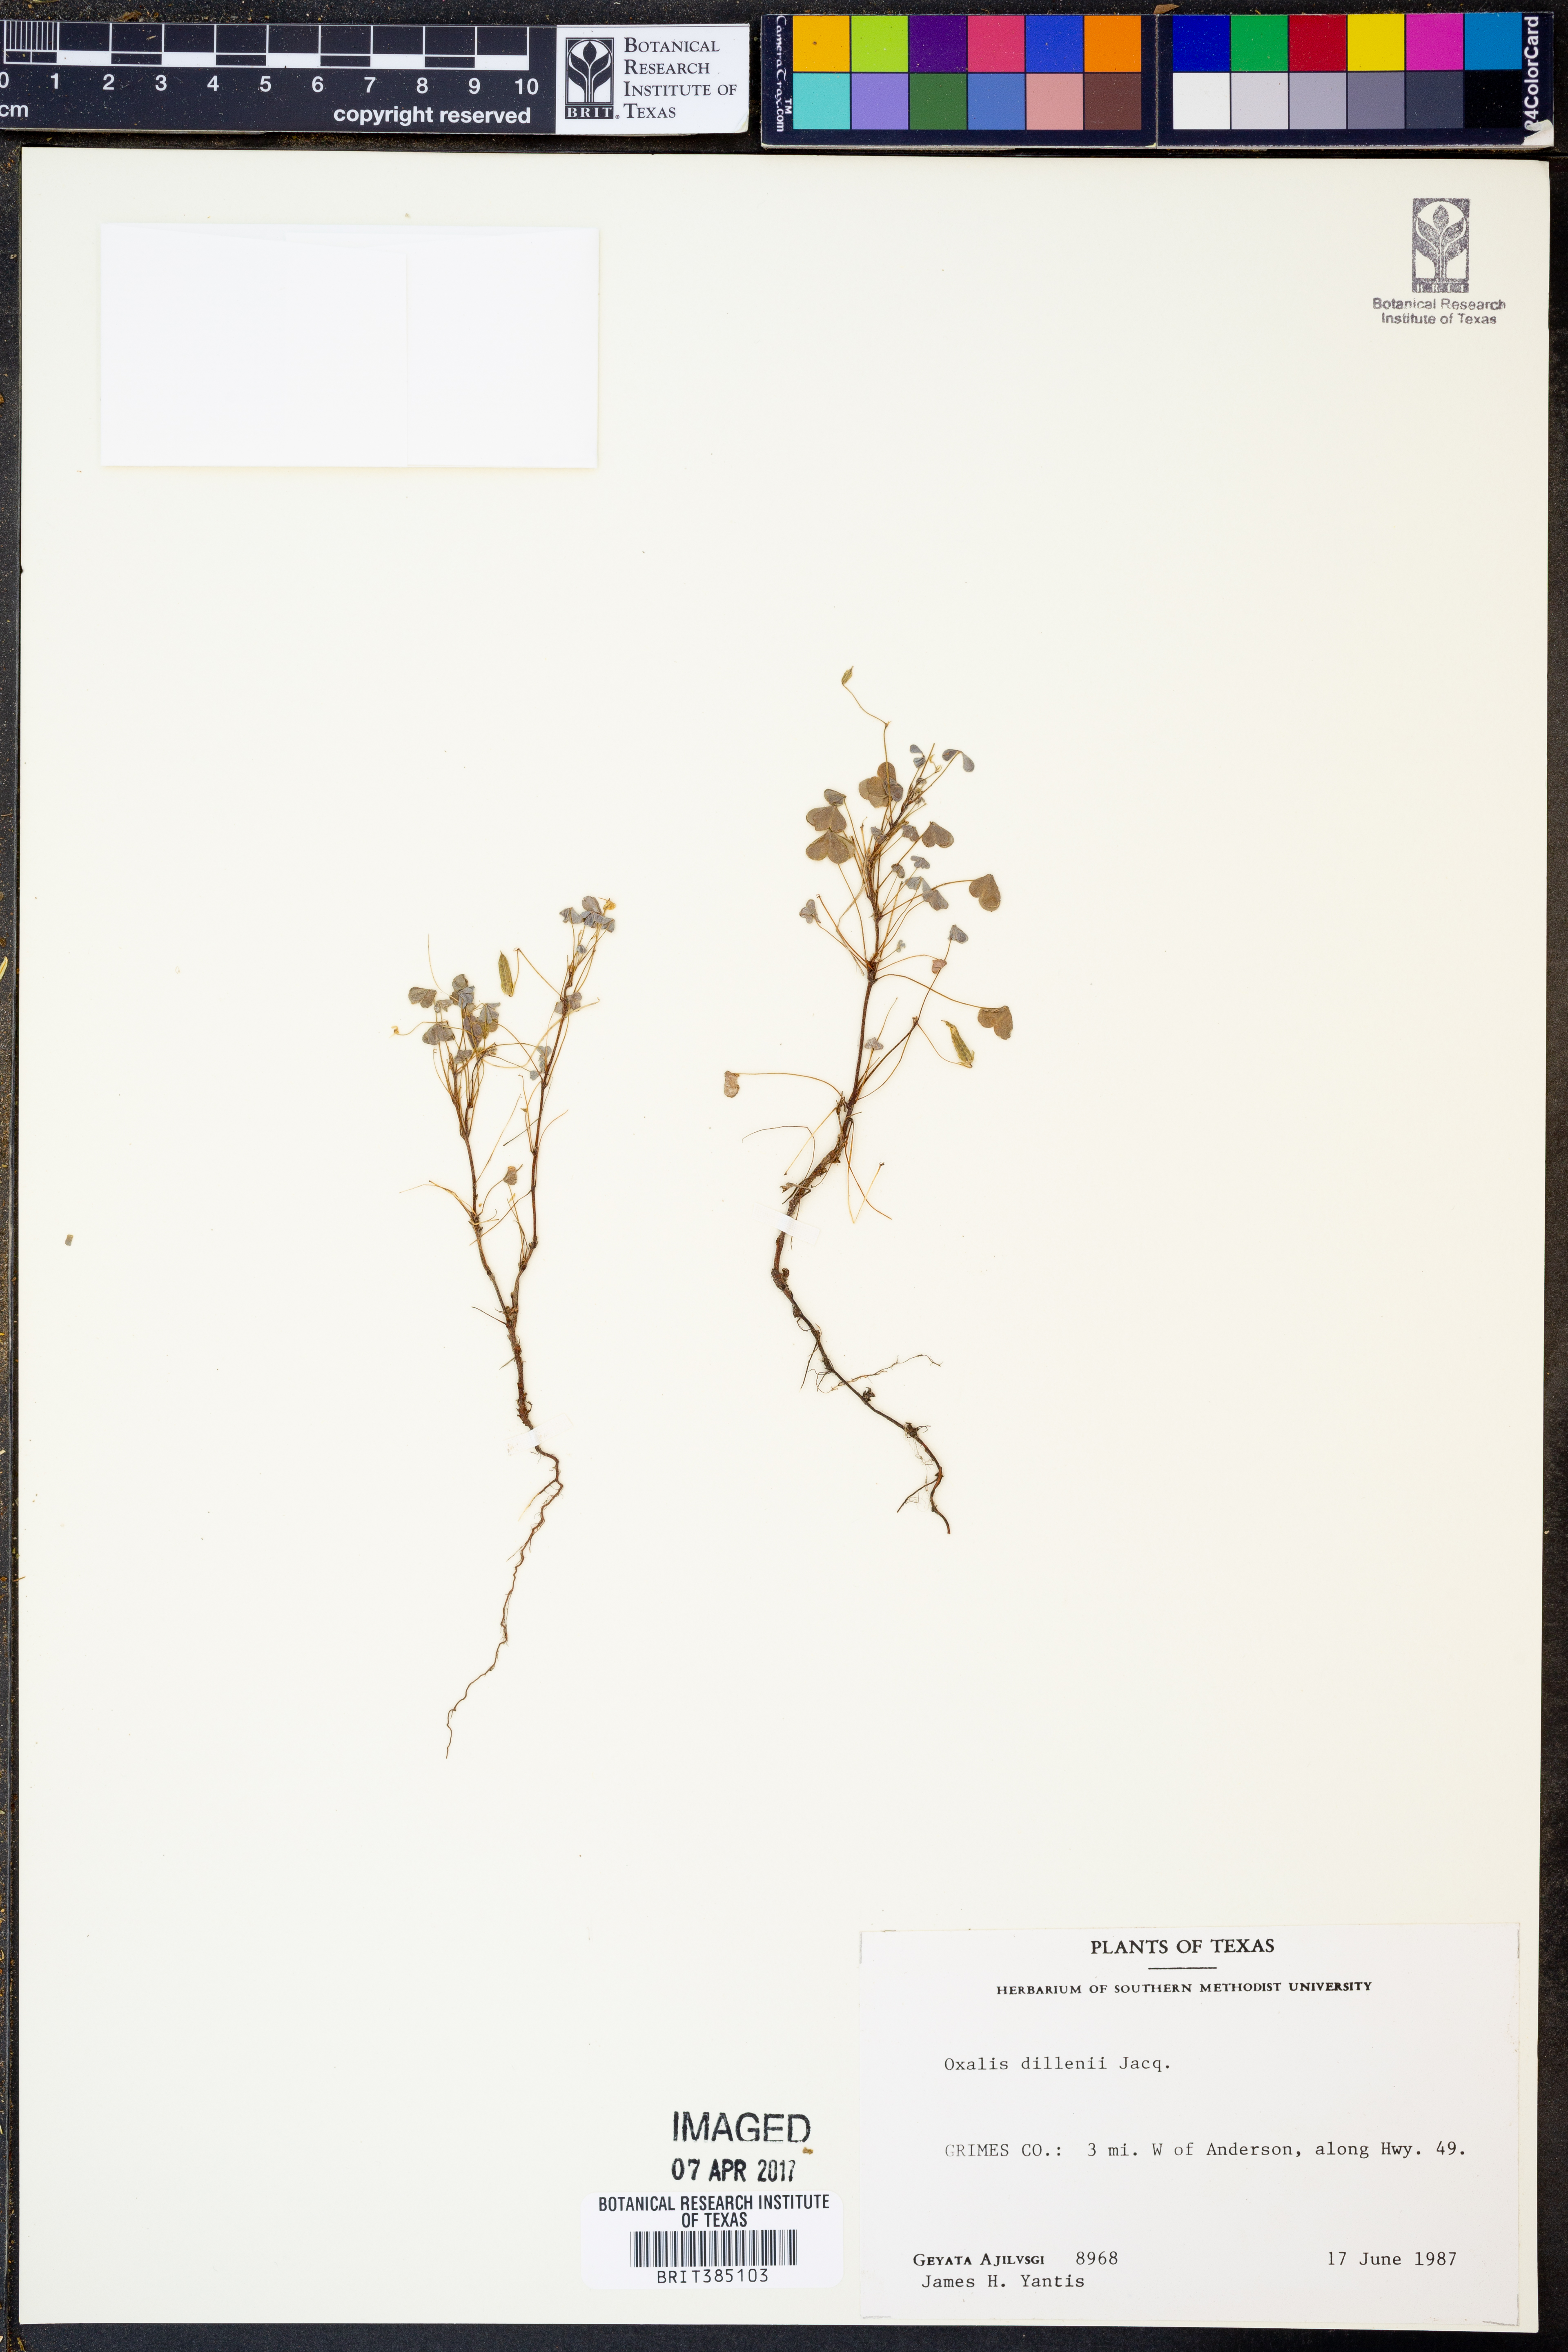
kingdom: Plantae
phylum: Tracheophyta
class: Magnoliopsida
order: Oxalidales
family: Oxalidaceae
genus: Oxalis
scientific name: Oxalis dillenii
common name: Sussex yellow-sorrel
